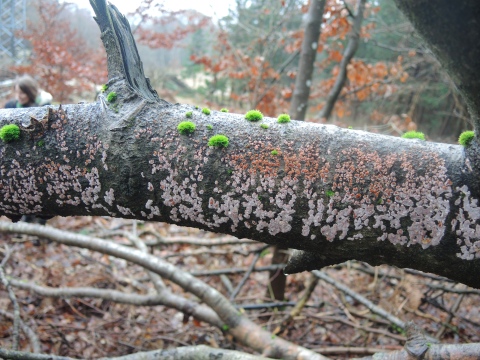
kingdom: Fungi
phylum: Basidiomycota
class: Agaricomycetes
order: Russulales
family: Peniophoraceae
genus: Peniophora
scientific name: Peniophora polygonia
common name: polygon-voksskind
